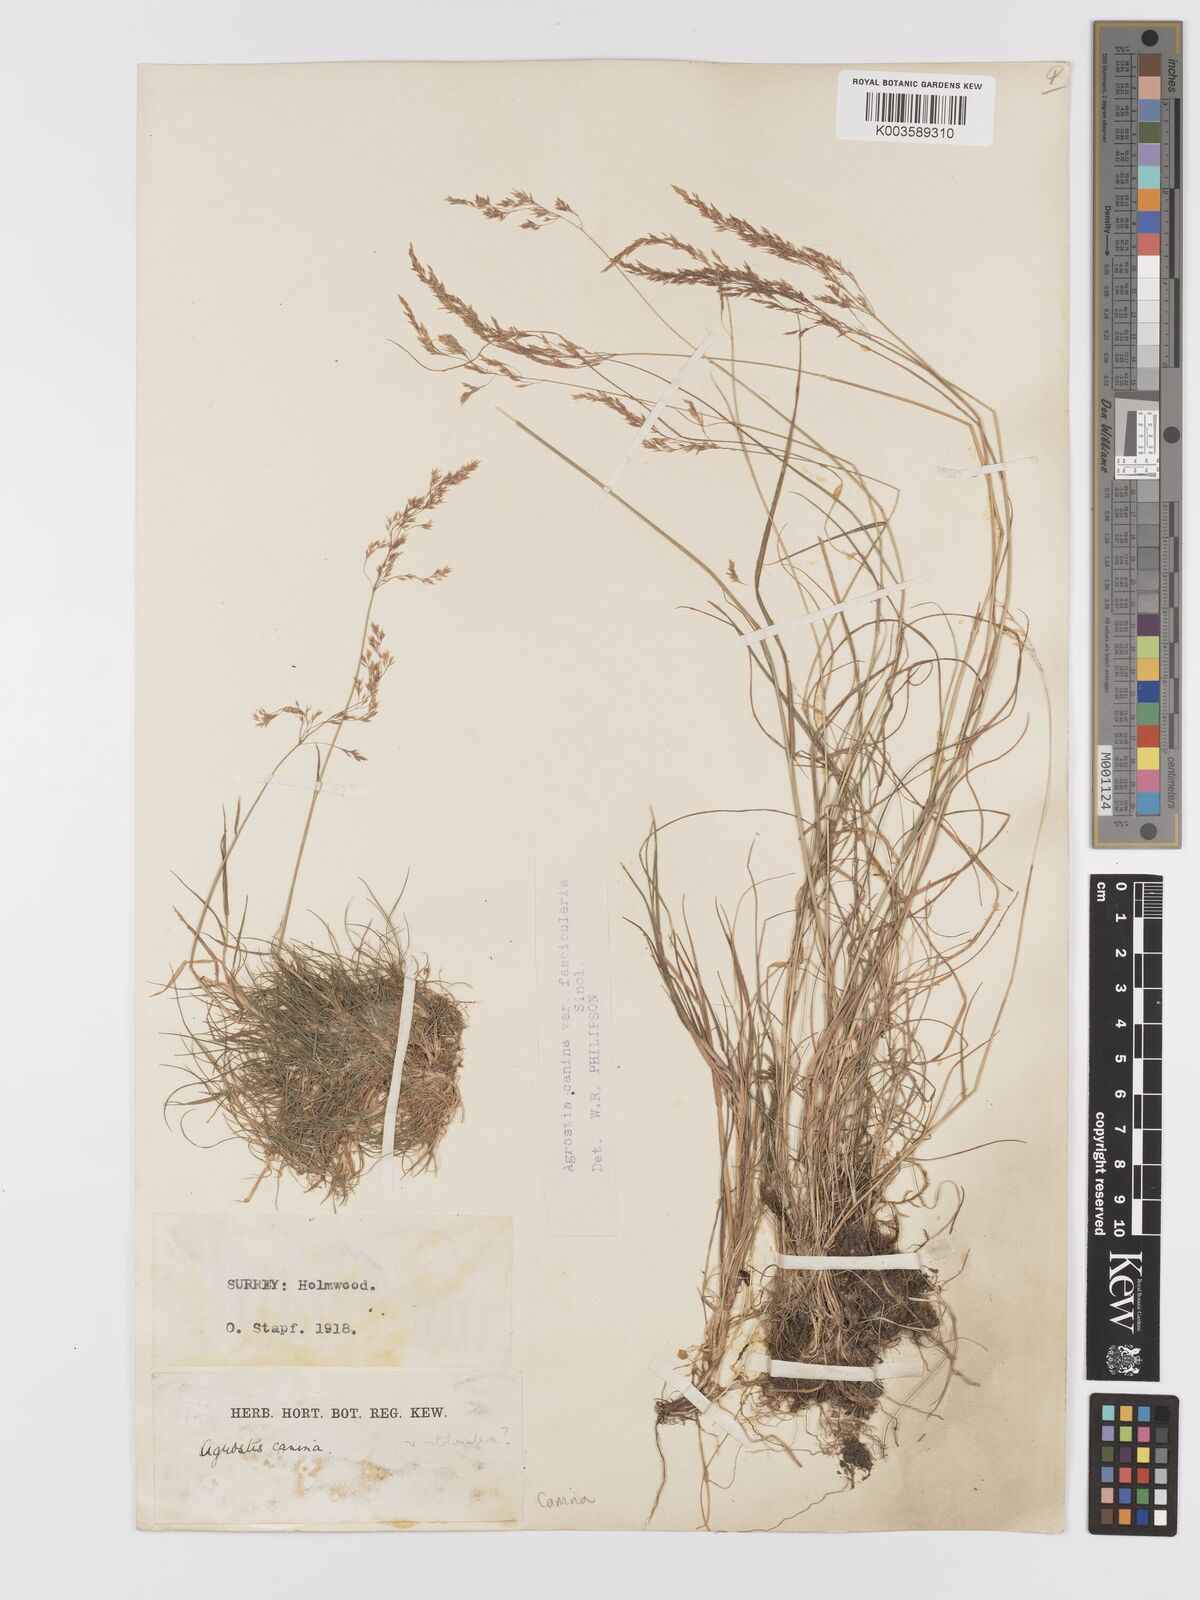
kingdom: Plantae
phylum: Tracheophyta
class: Liliopsida
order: Poales
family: Poaceae
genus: Agrostis
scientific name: Agrostis canina
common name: Velvet bent
